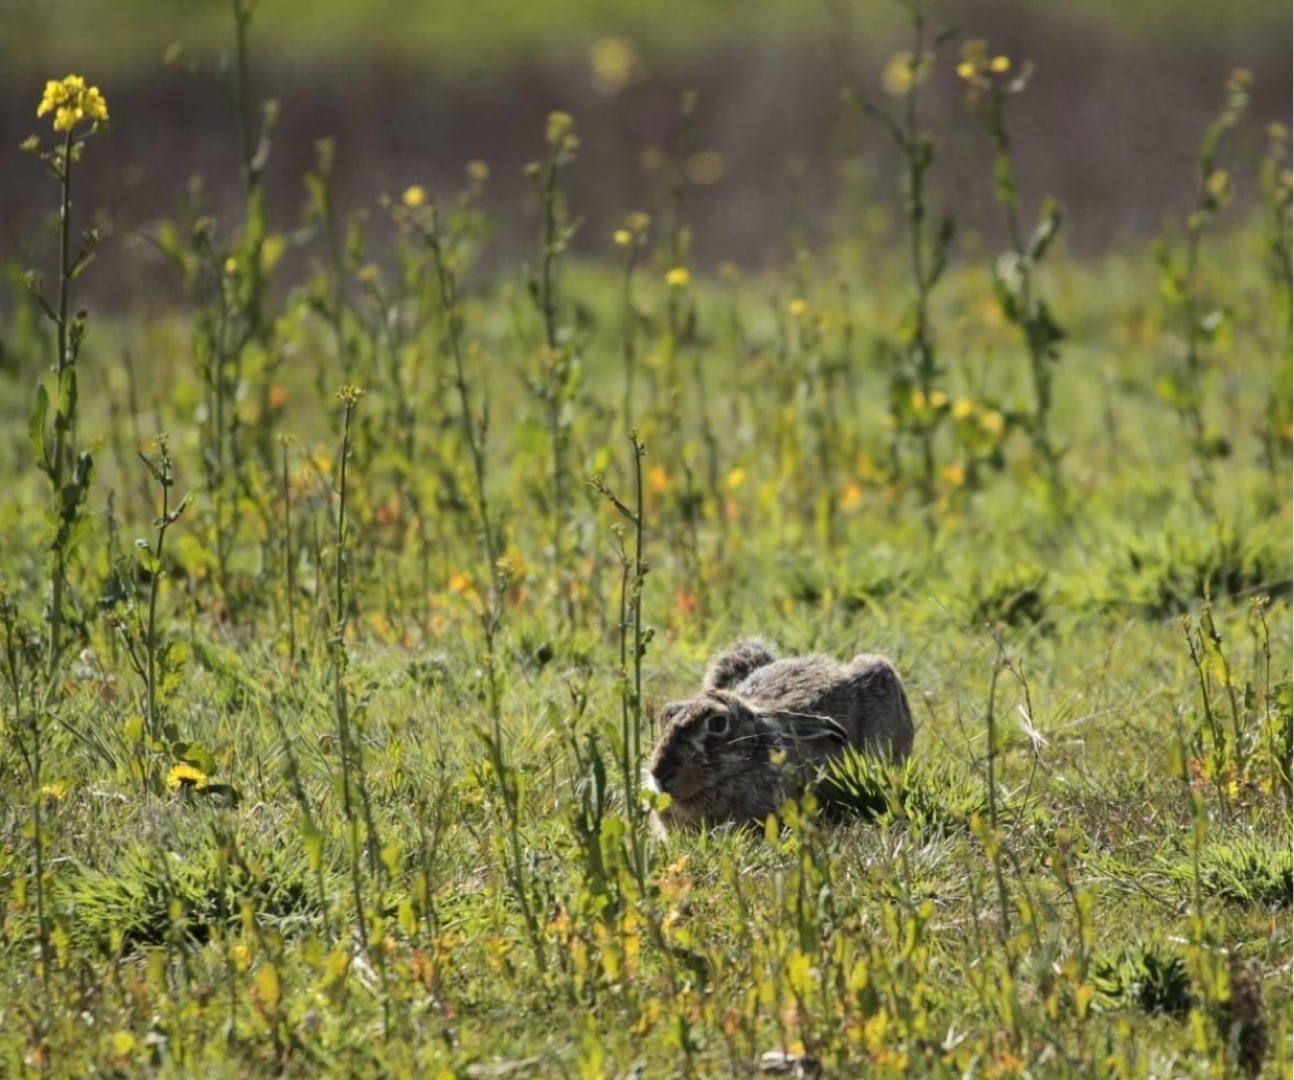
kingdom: Animalia
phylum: Chordata
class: Mammalia
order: Lagomorpha
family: Leporidae
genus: Lepus
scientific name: Lepus europaeus
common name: Hare
